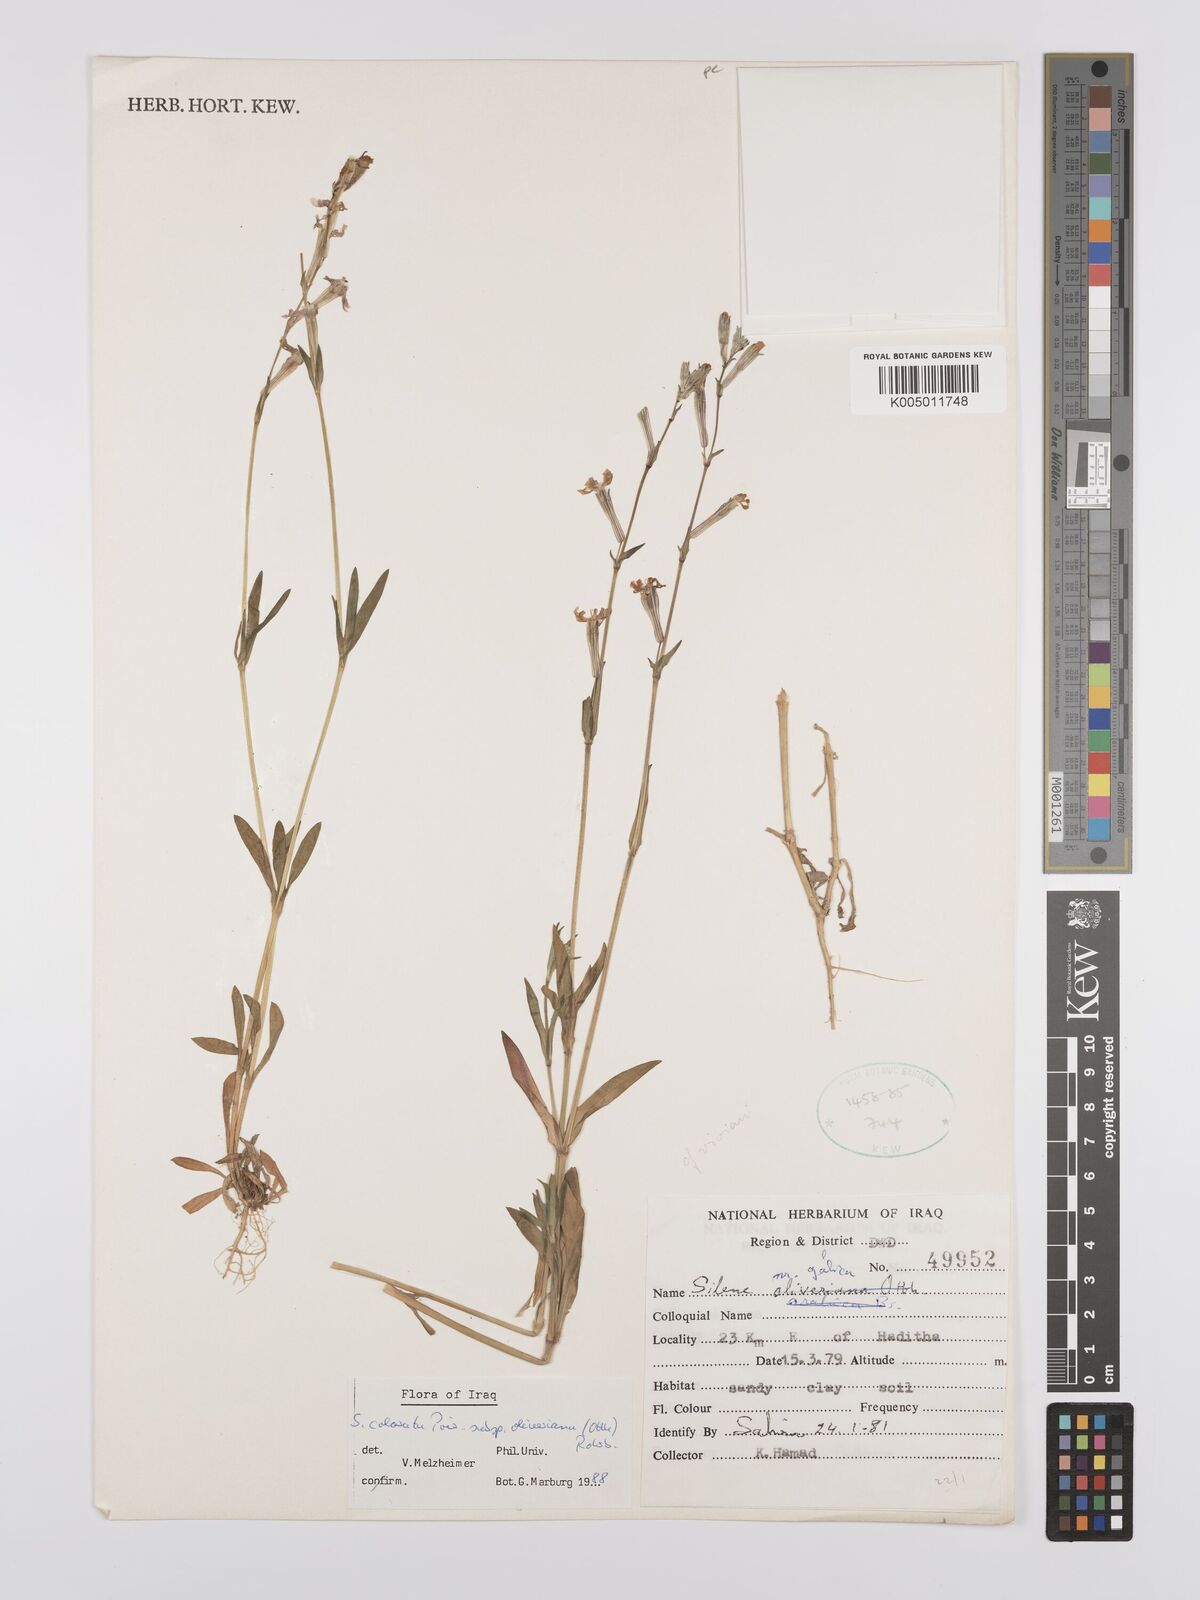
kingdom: Plantae
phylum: Tracheophyta
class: Magnoliopsida
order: Caryophyllales
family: Caryophyllaceae
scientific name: Caryophyllaceae
